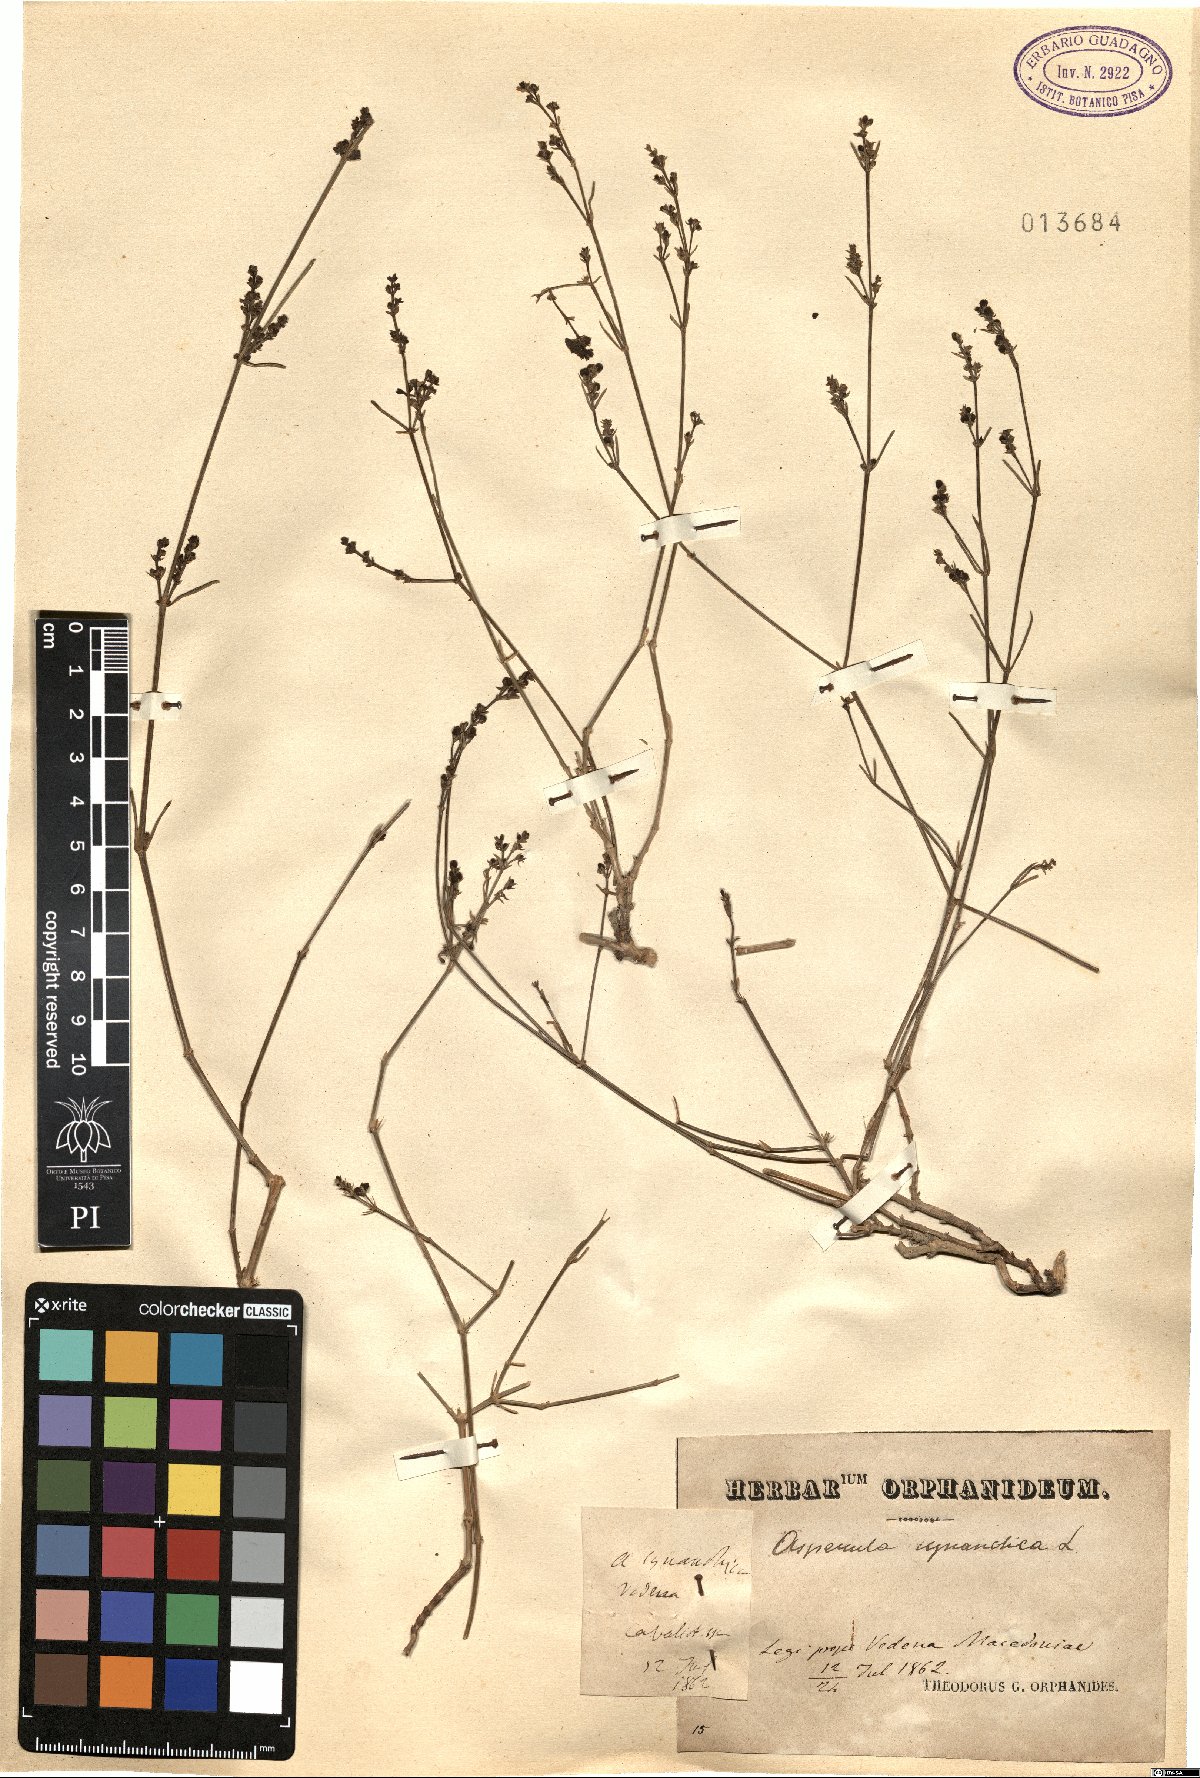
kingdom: Plantae
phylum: Tracheophyta
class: Magnoliopsida
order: Gentianales
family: Rubiaceae
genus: Cynanchica
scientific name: Cynanchica pyrenaica
